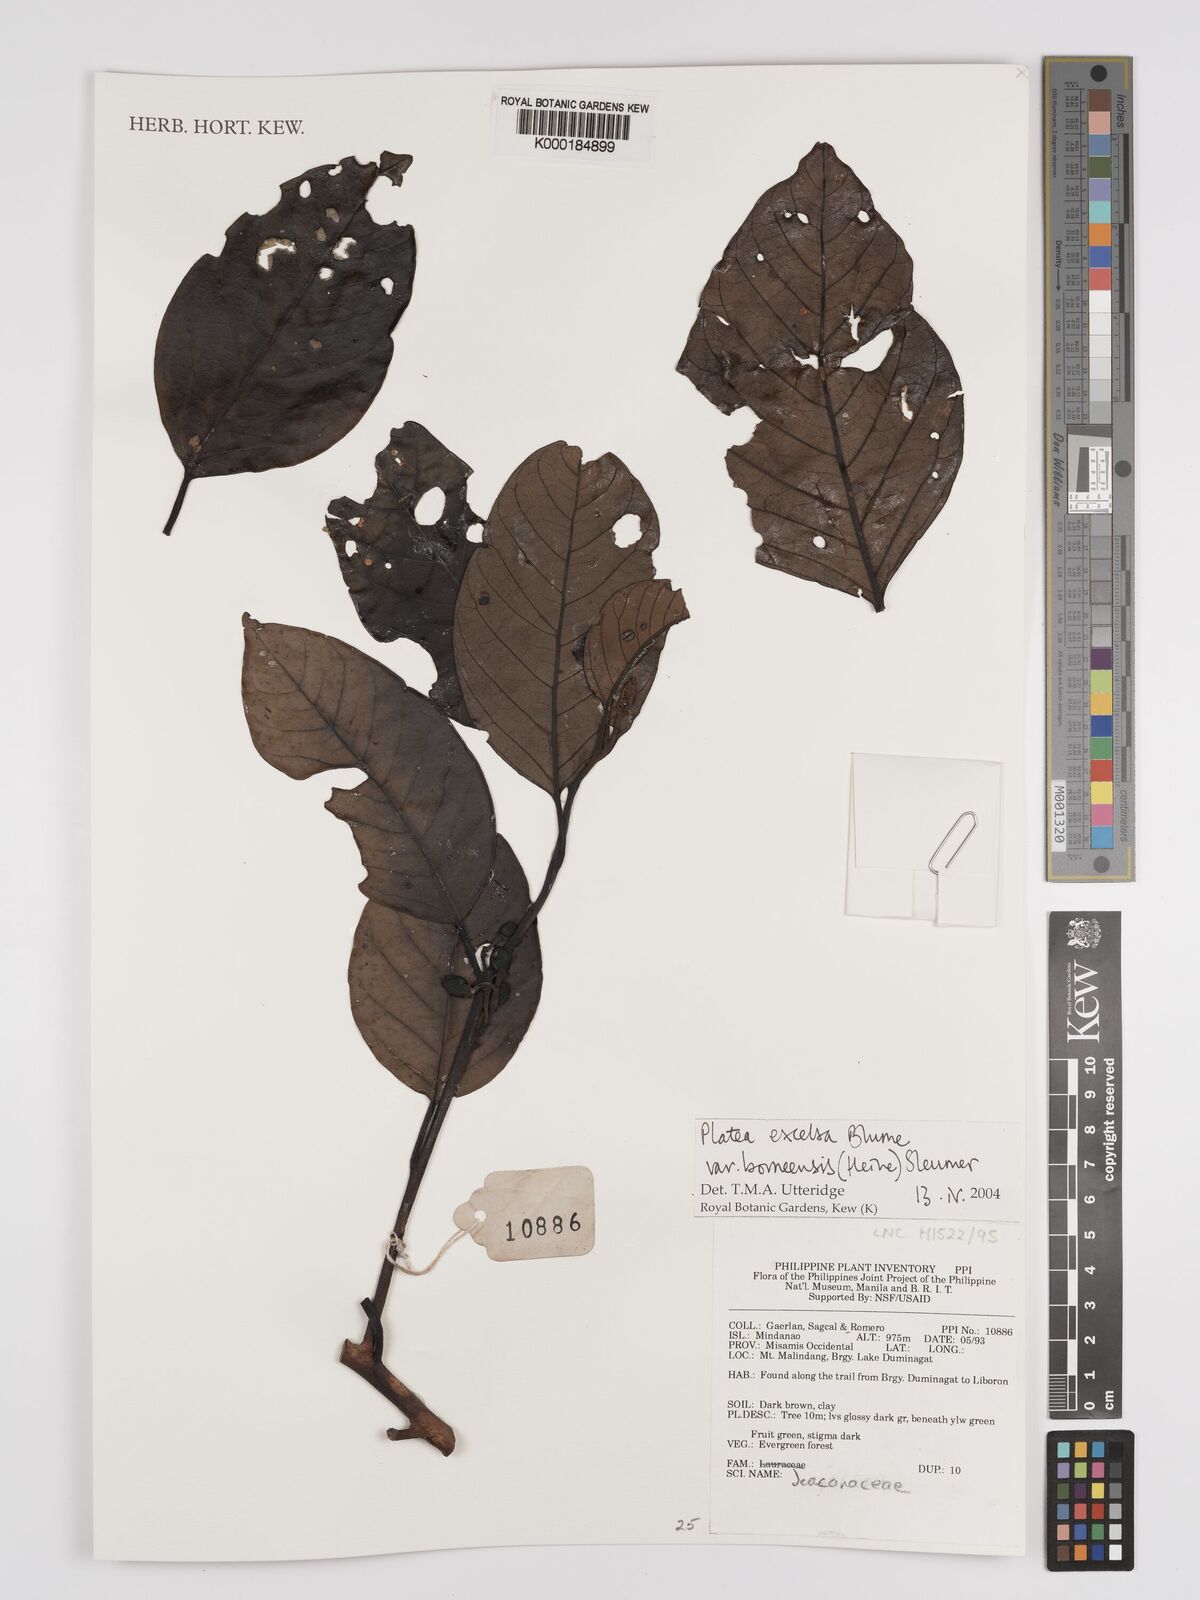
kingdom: Plantae
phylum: Tracheophyta
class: Magnoliopsida
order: Metteniusales
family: Metteniusaceae
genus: Platea
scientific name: Platea
